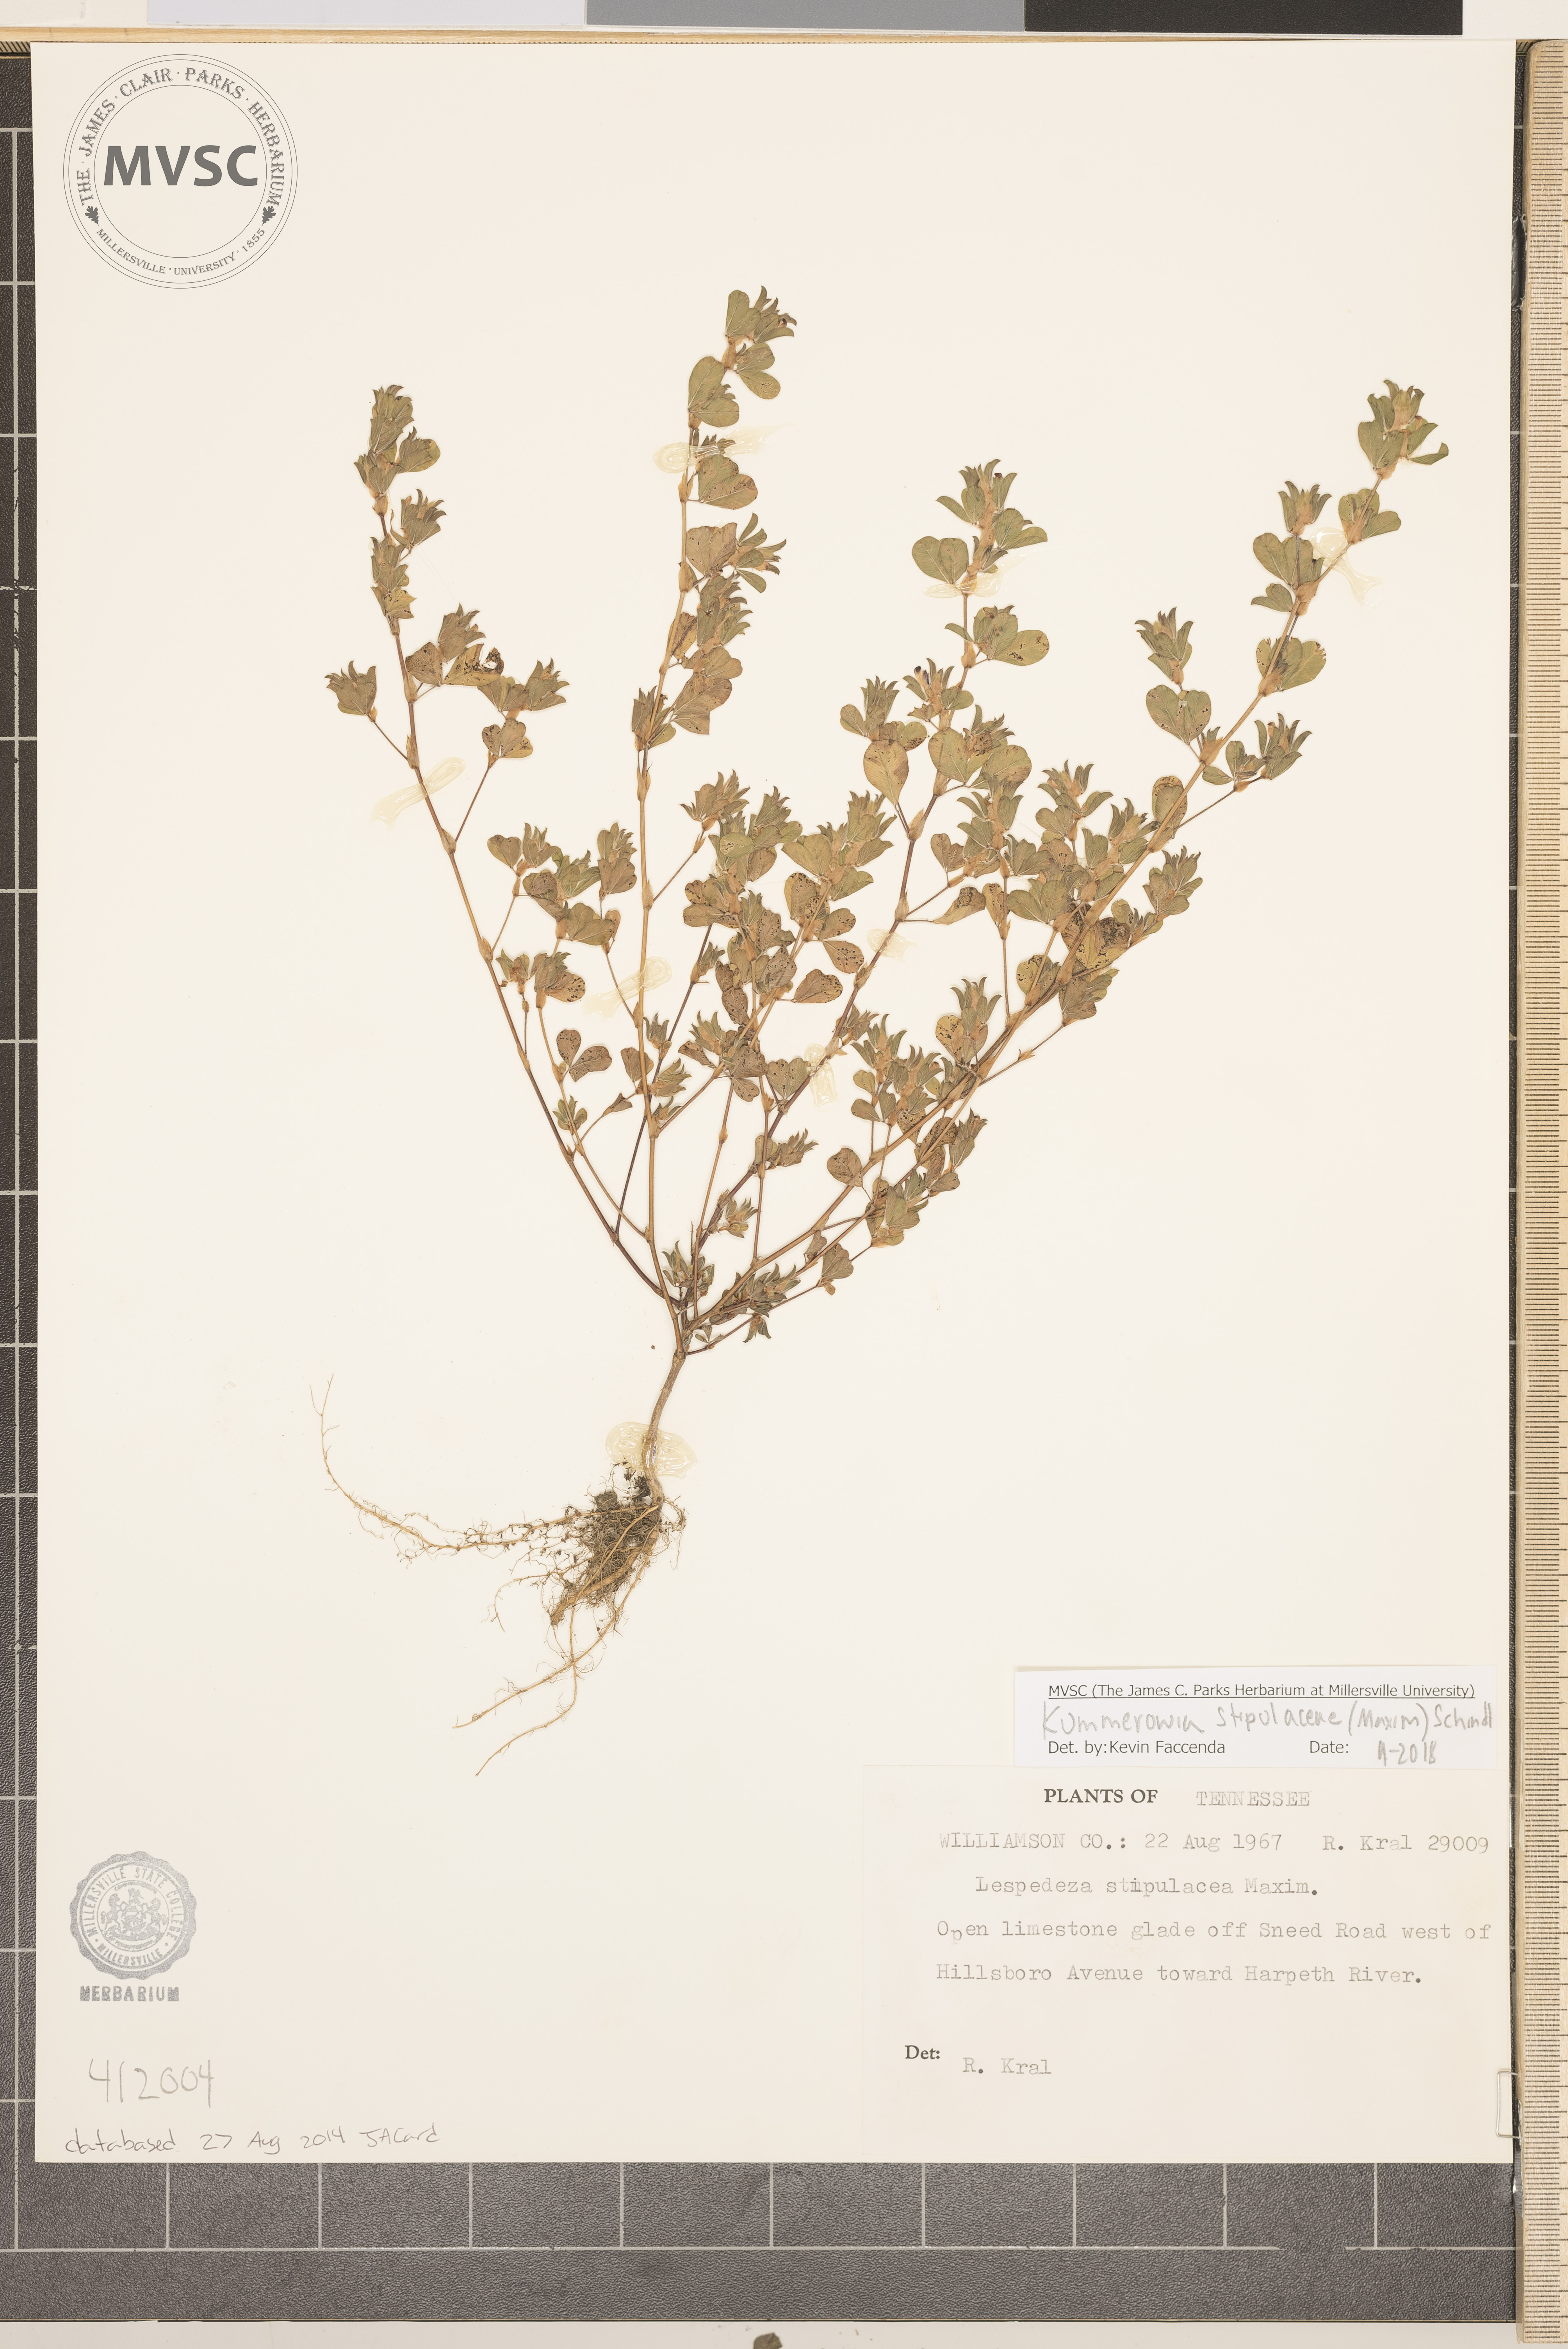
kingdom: Plantae
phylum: Tracheophyta
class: Magnoliopsida
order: Fabales
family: Fabaceae
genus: Kummerowia
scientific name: Kummerowia stipulacea
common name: Korean clover
